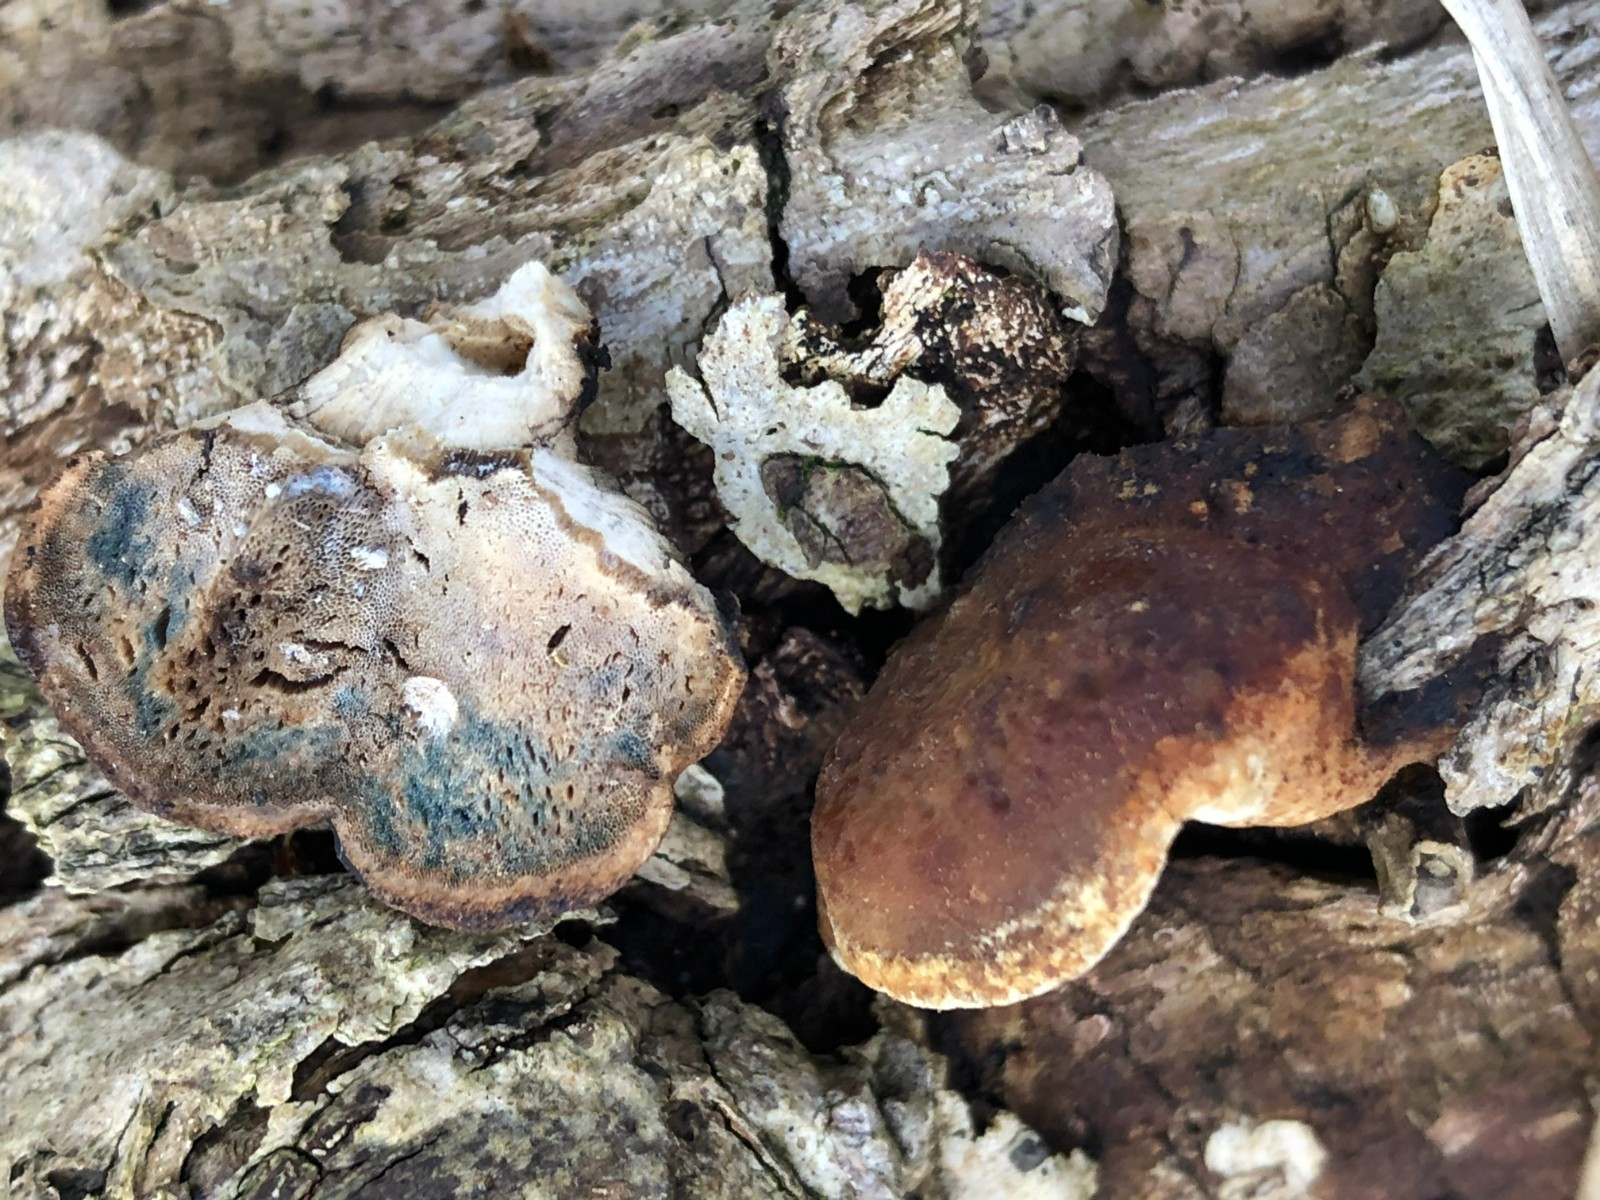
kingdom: Fungi
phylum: Basidiomycota
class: Agaricomycetes
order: Polyporales
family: Incrustoporiaceae
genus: Skeletocutis
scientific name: Skeletocutis nemoralis
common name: stor krystalporesvamp
